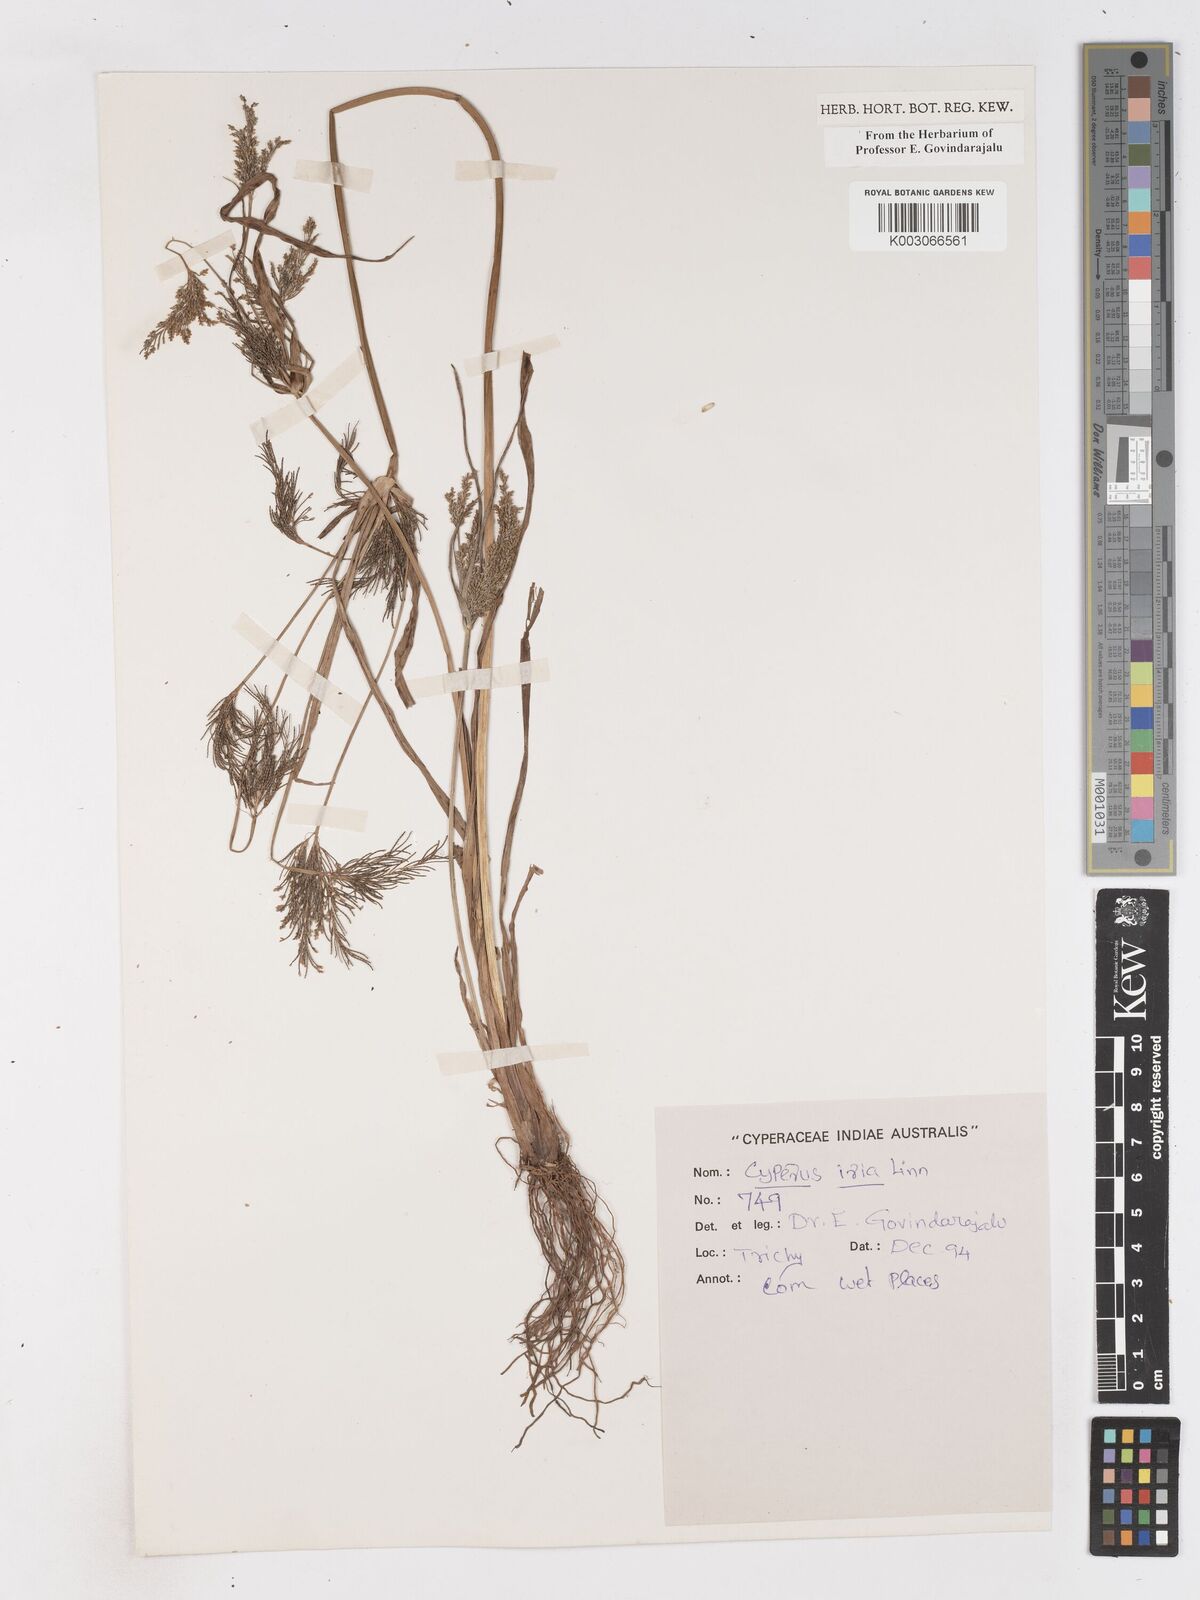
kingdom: Plantae
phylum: Tracheophyta
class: Liliopsida
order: Poales
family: Cyperaceae
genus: Cyperus
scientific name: Cyperus iria
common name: Ricefield flatsedge
